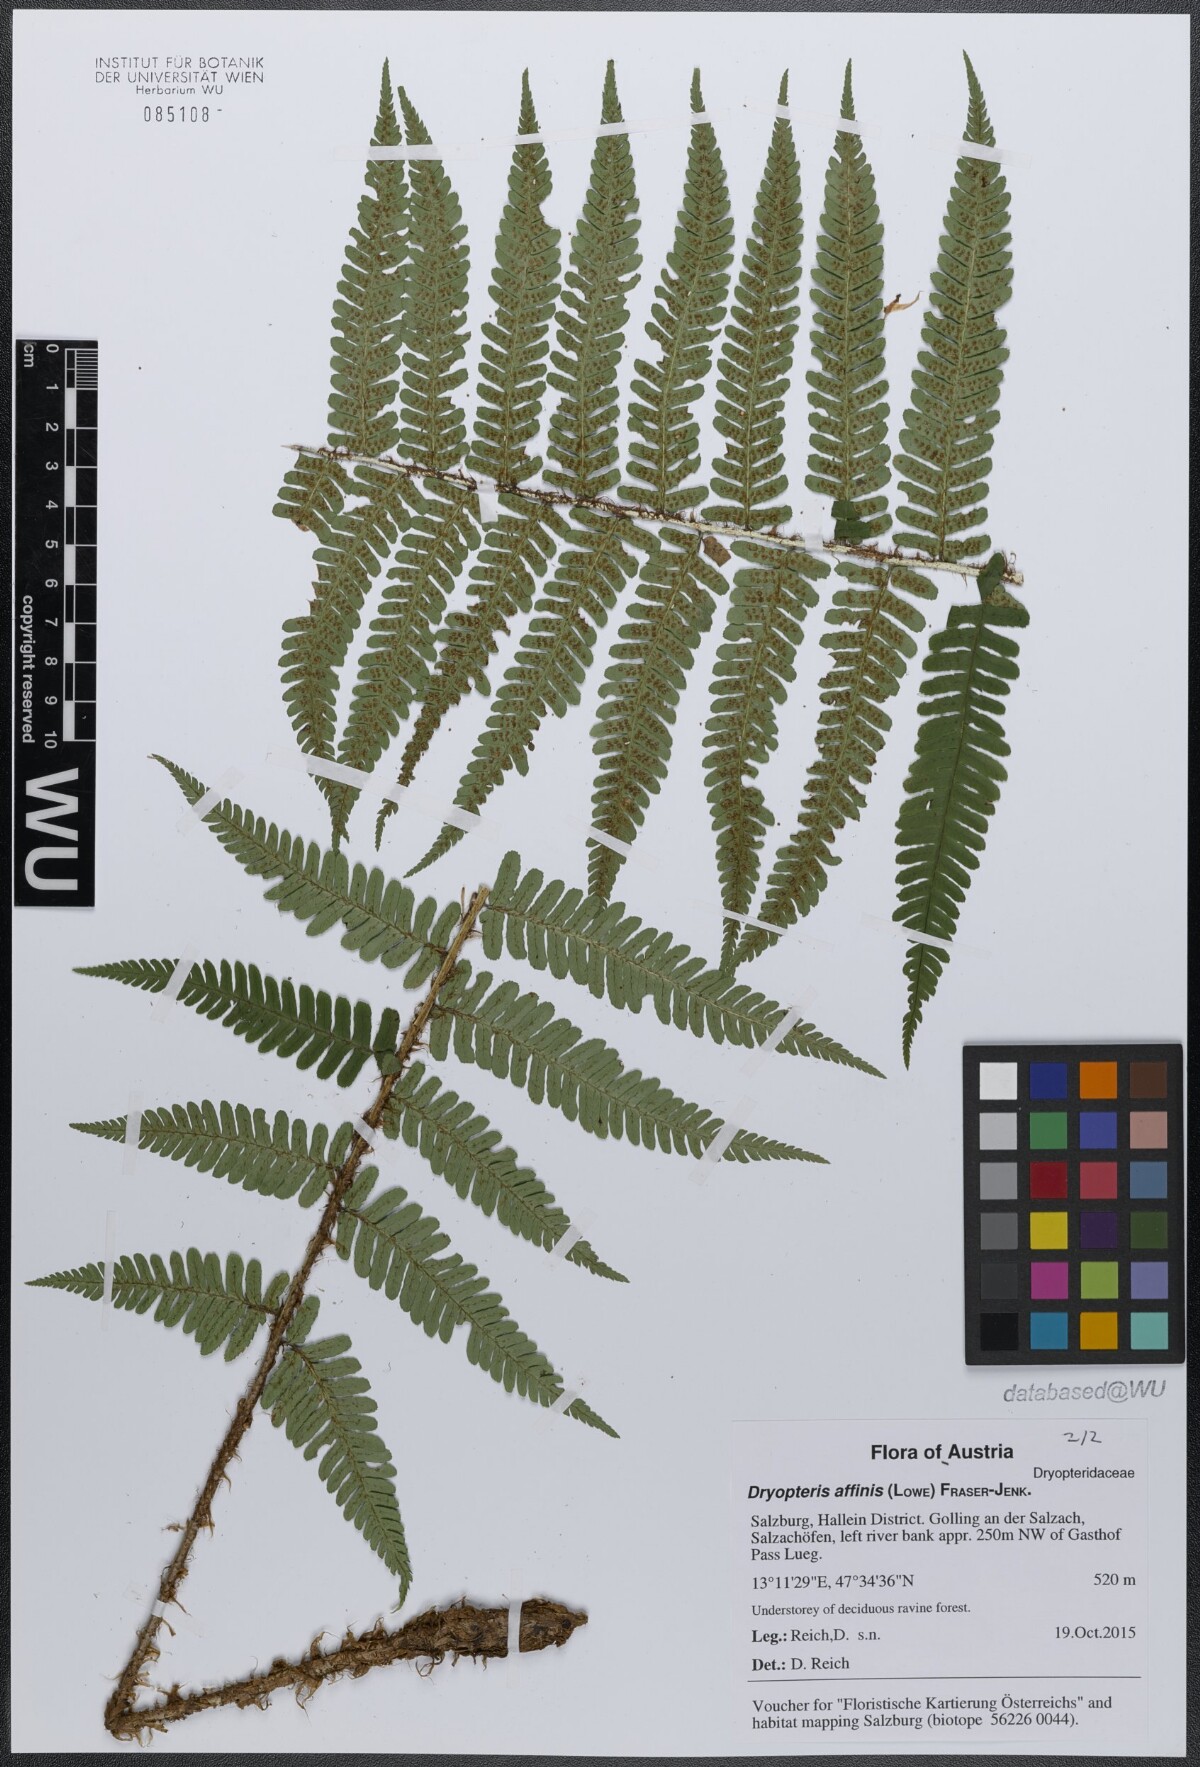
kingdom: Plantae
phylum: Tracheophyta
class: Polypodiopsida
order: Polypodiales
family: Dryopteridaceae
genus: Dryopteris
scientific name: Dryopteris affinis
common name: Scaly male fern
